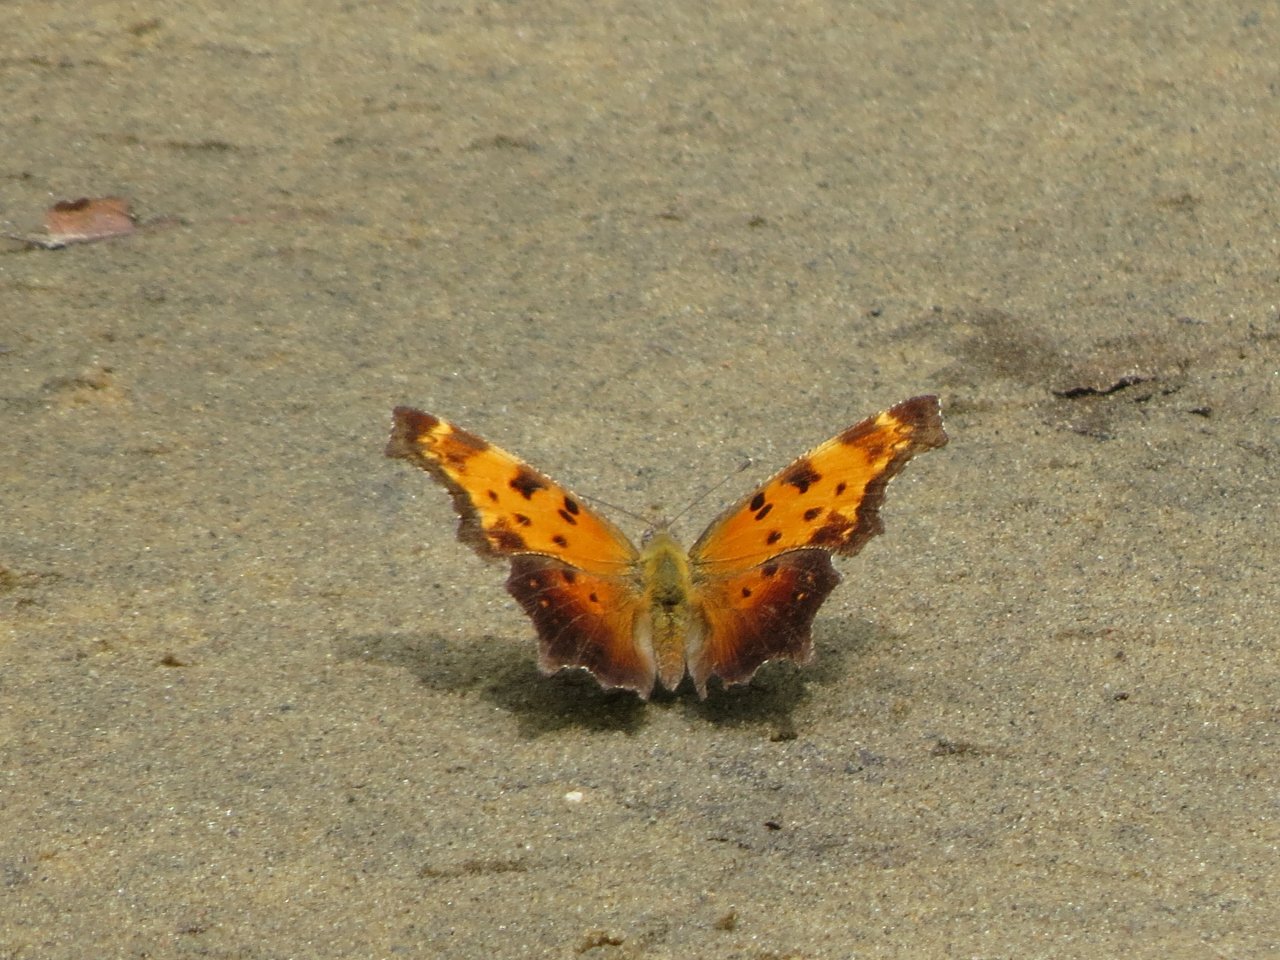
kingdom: Animalia
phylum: Arthropoda
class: Insecta
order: Lepidoptera
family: Nymphalidae
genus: Polygonia
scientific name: Polygonia progne
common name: Gray Comma
